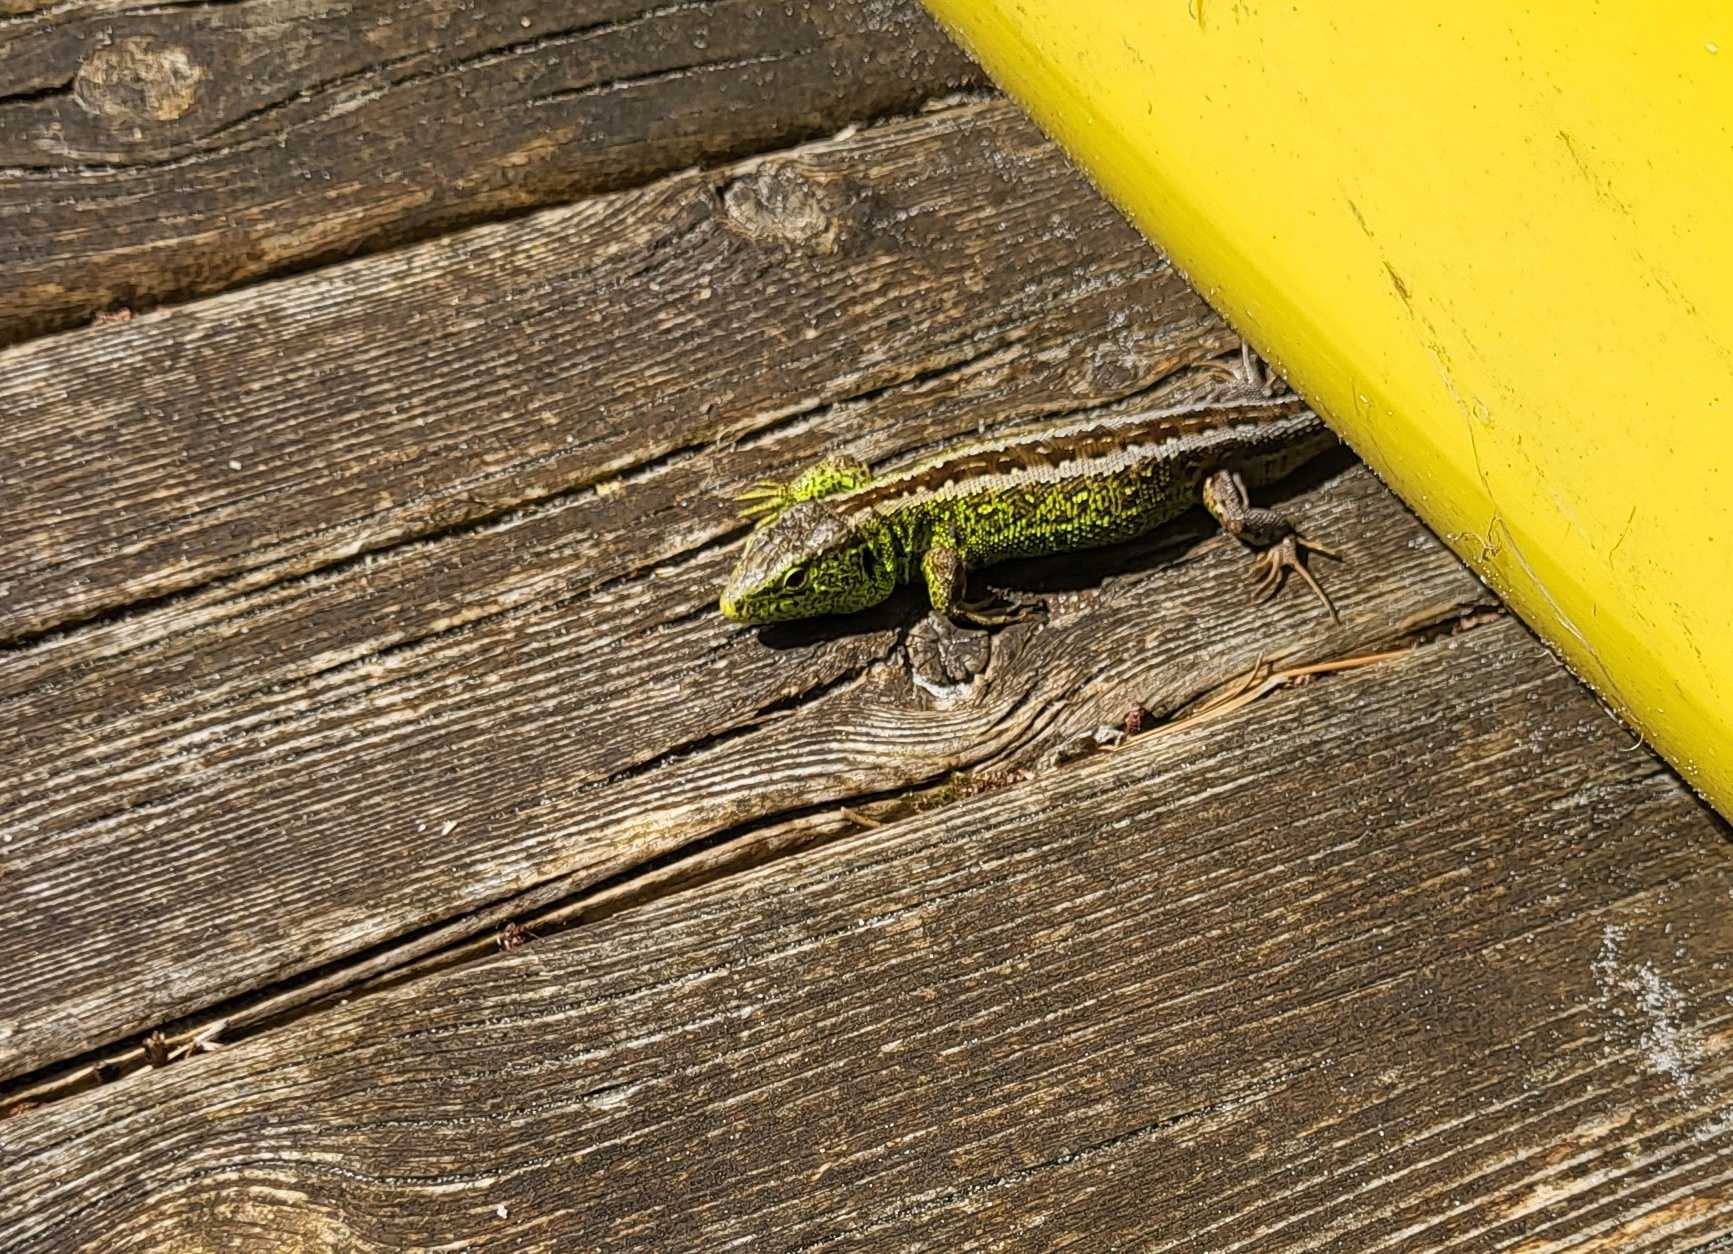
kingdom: Animalia
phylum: Chordata
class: Squamata
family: Lacertidae
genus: Lacerta
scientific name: Lacerta agilis
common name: Markfirben
